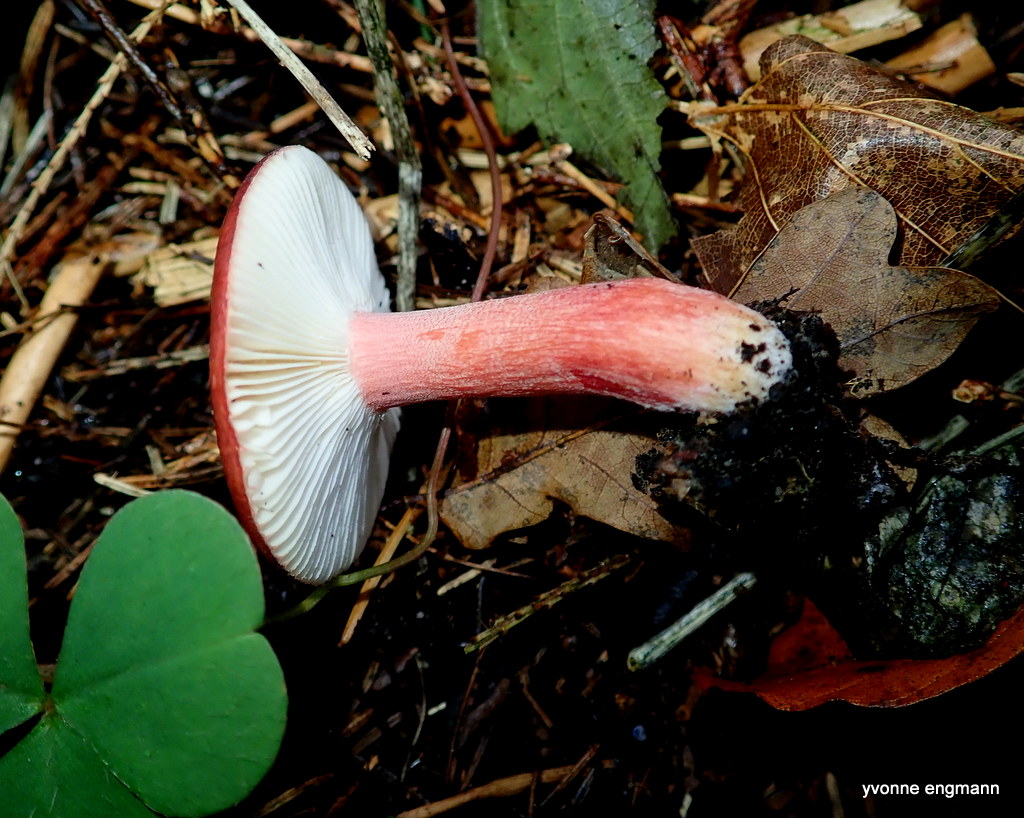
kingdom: Fungi
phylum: Basidiomycota
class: Agaricomycetes
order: Russulales
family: Russulaceae
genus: Russula
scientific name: Russula
